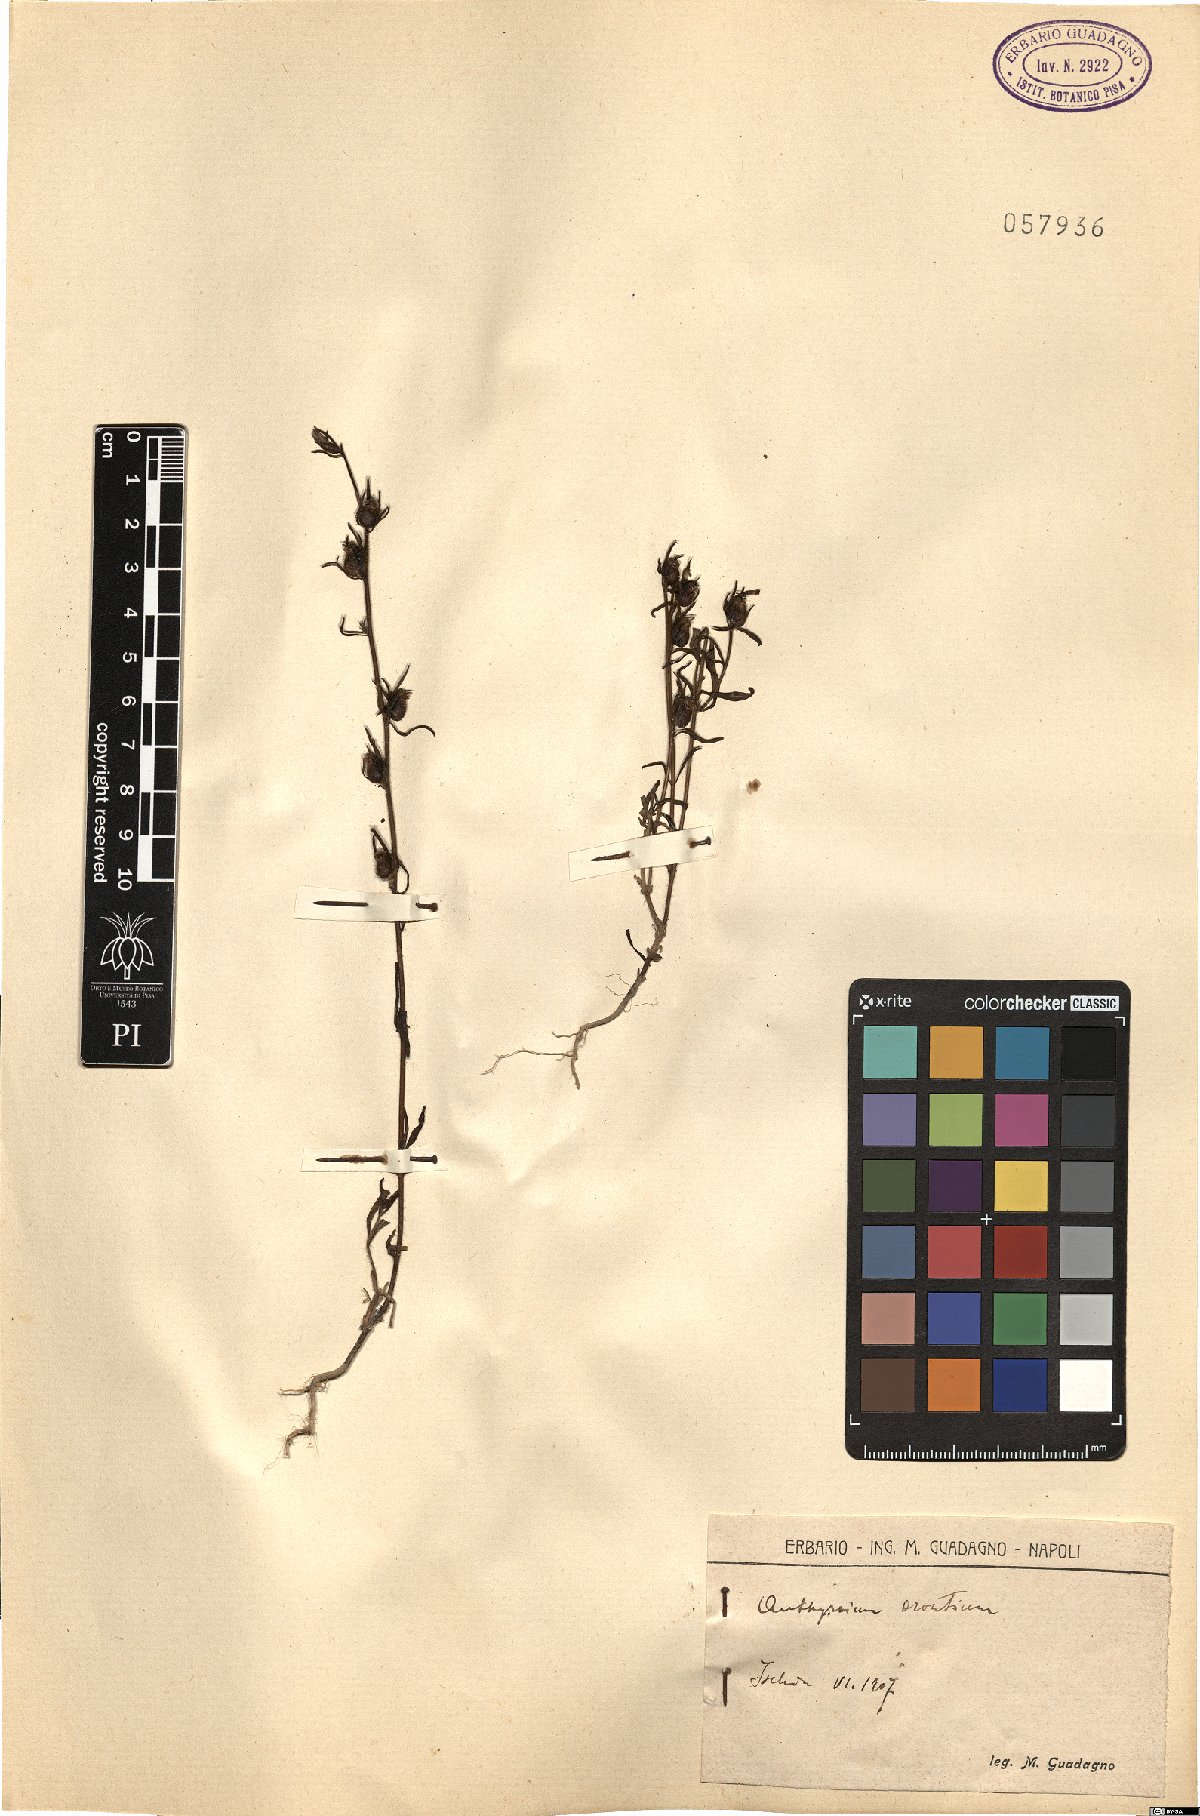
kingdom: Plantae
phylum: Tracheophyta
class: Magnoliopsida
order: Lamiales
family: Plantaginaceae
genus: Misopates
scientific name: Misopates orontium
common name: Weasel's-snout
